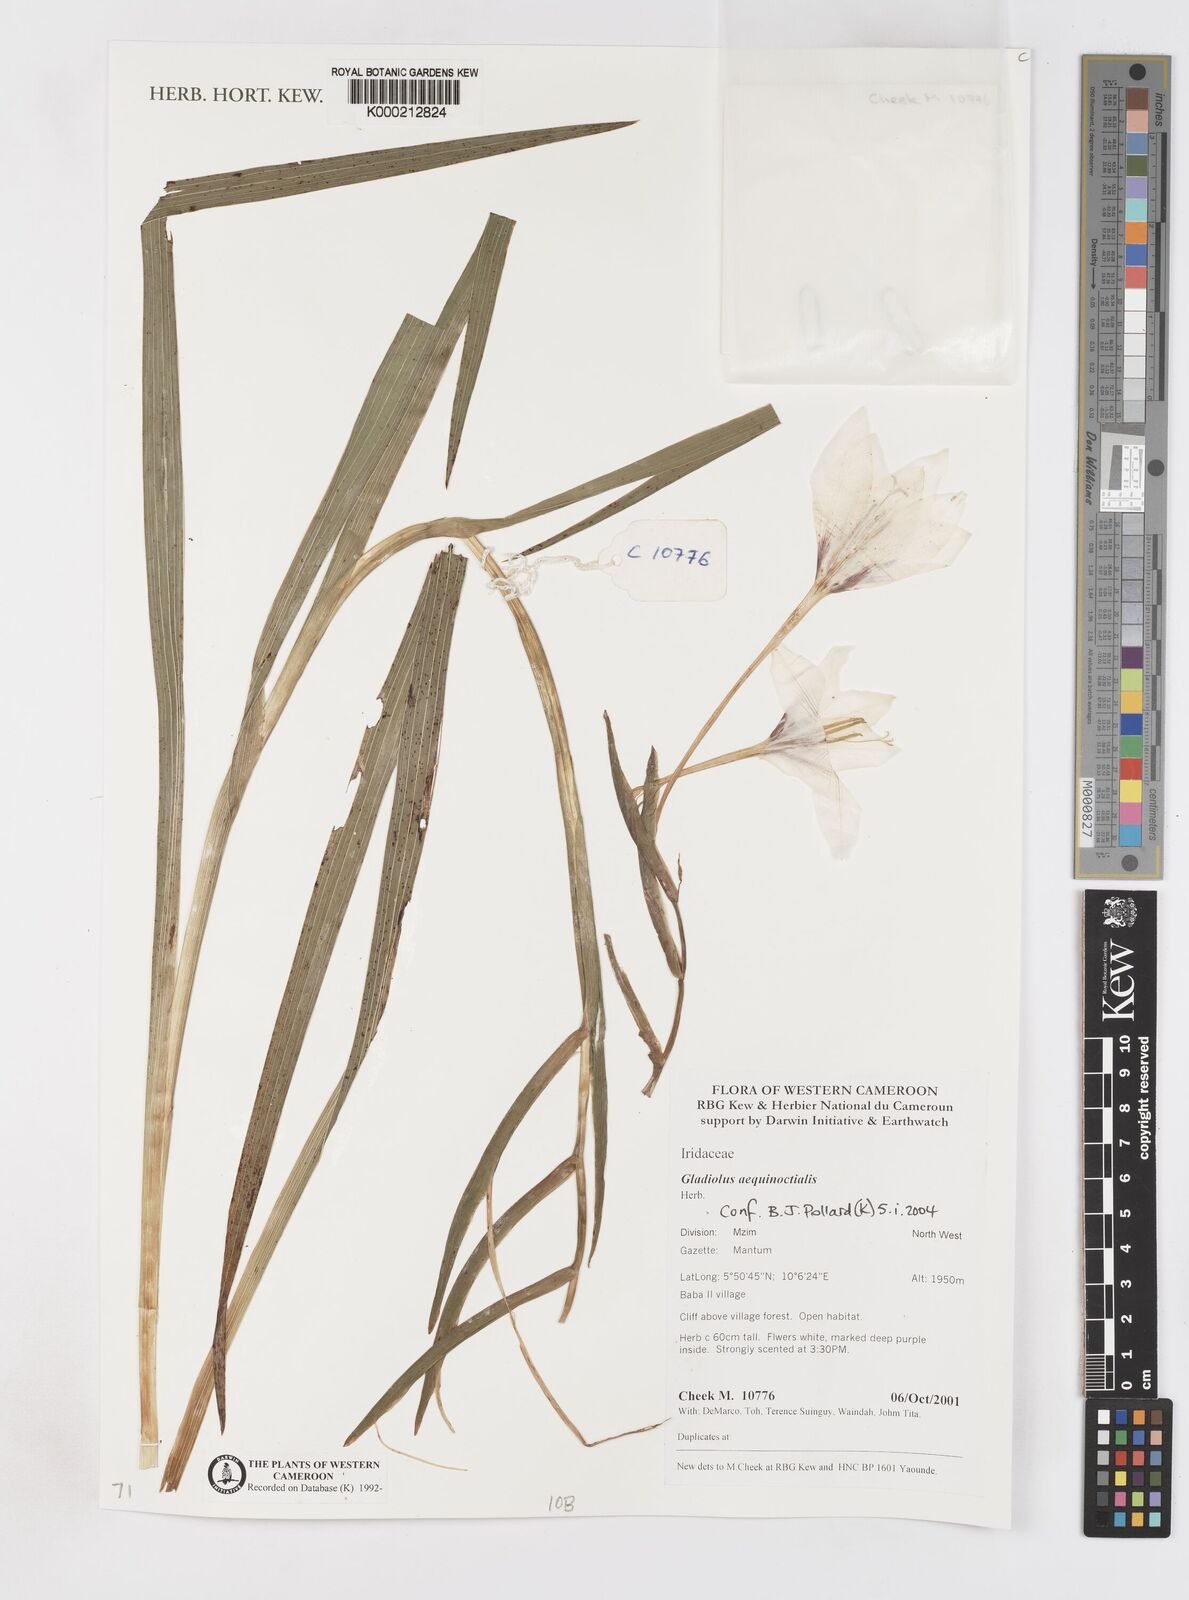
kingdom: Plantae
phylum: Tracheophyta
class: Liliopsida
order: Asparagales
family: Iridaceae
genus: Gladiolus
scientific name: Gladiolus aequinoctialis
